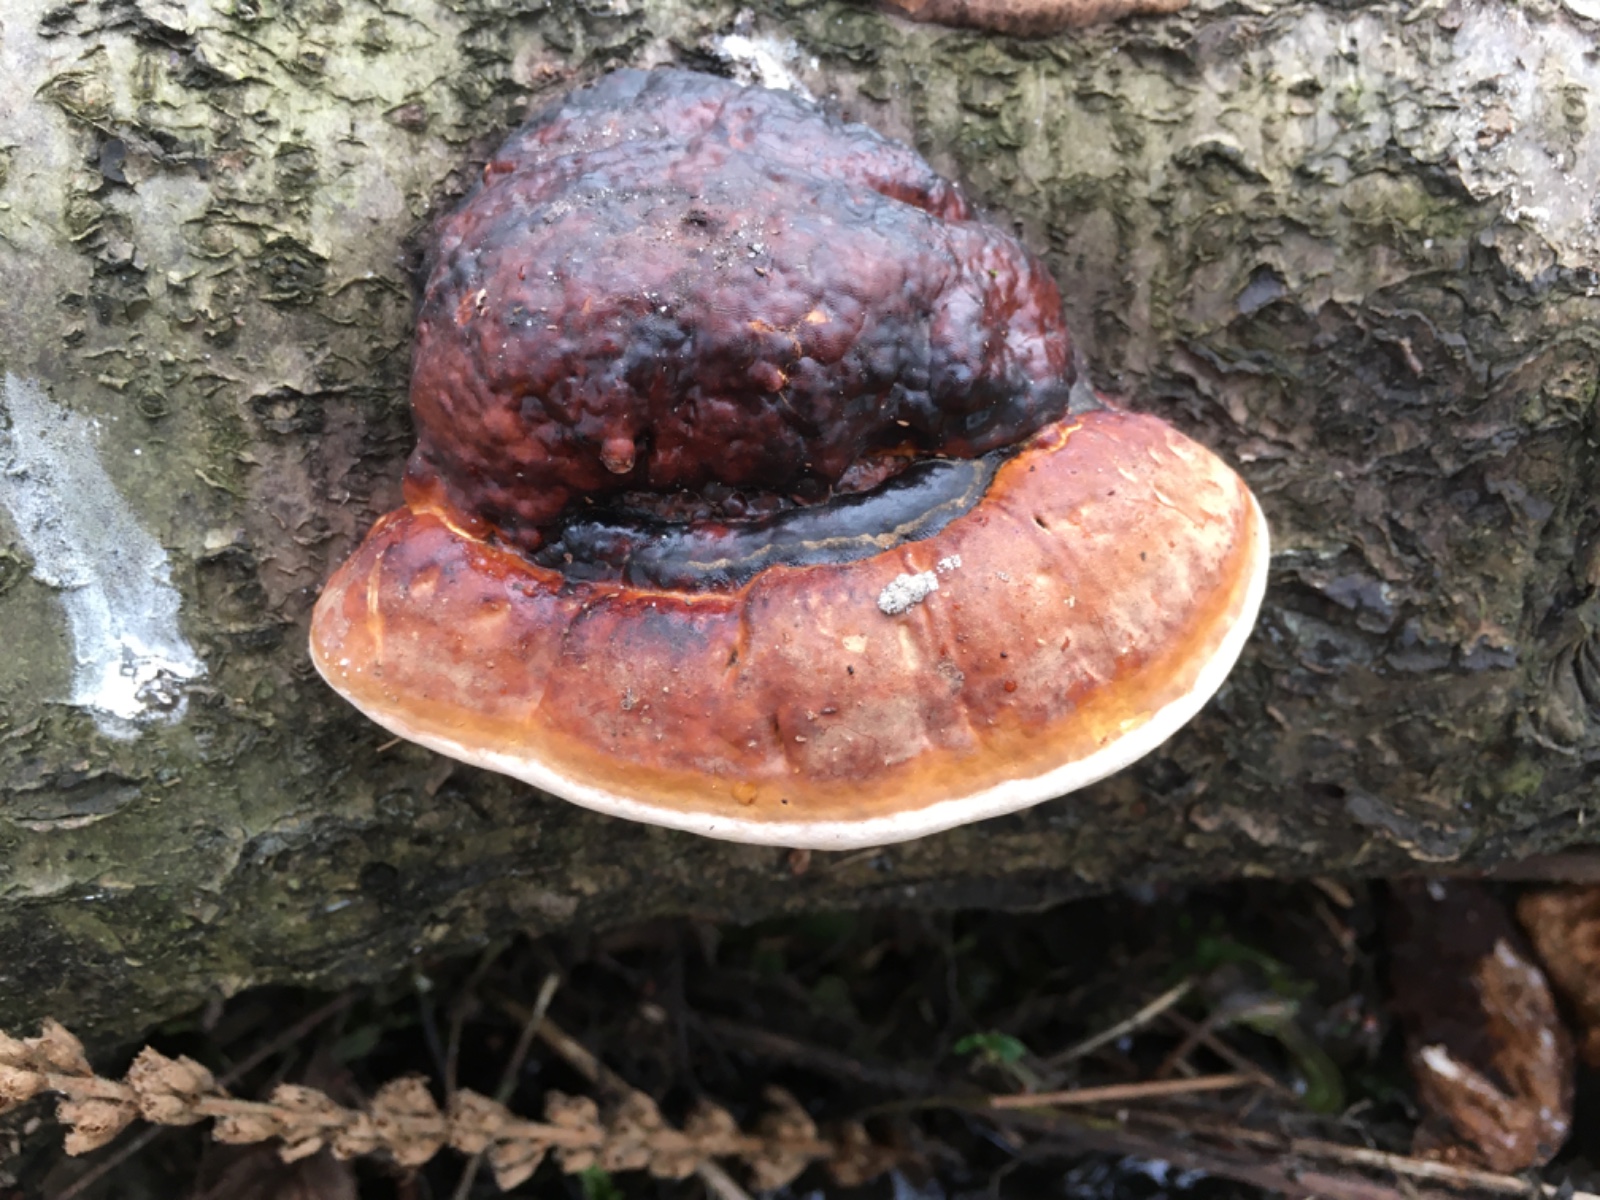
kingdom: Fungi
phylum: Basidiomycota
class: Agaricomycetes
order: Polyporales
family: Fomitopsidaceae
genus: Fomitopsis
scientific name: Fomitopsis pinicola
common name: randbæltet hovporesvamp
